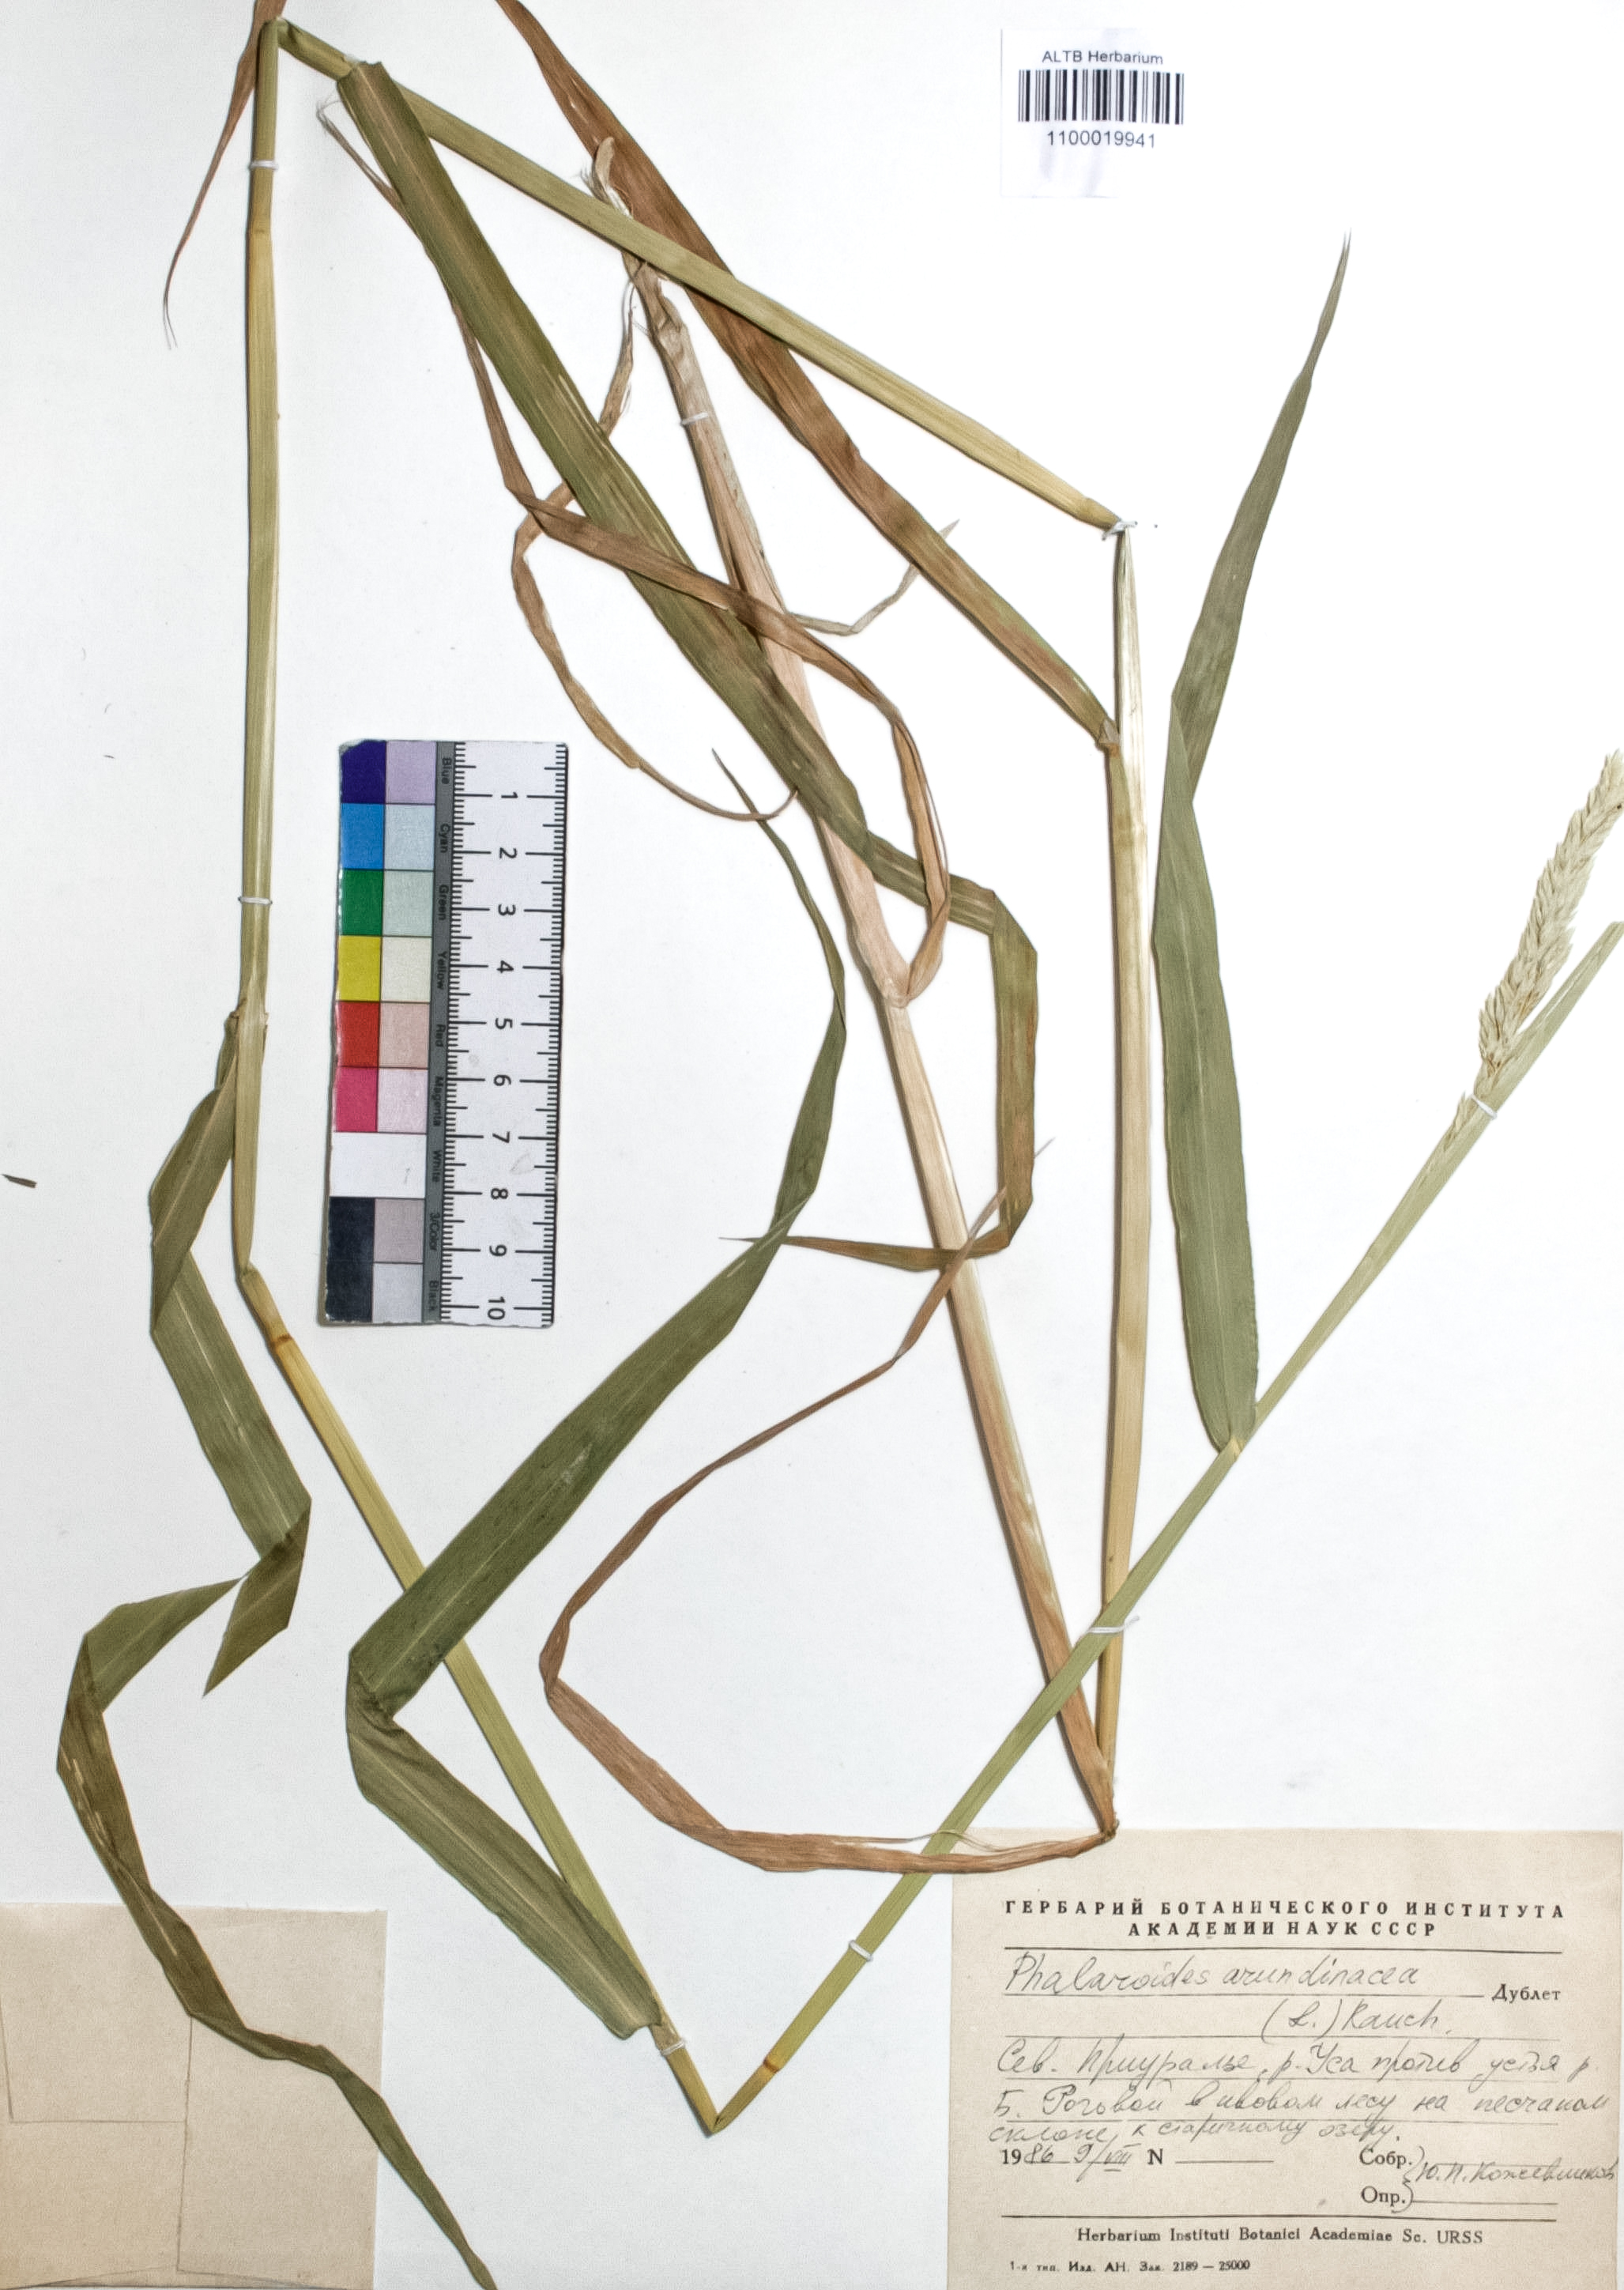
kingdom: Plantae
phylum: Tracheophyta
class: Liliopsida
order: Poales
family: Poaceae
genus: Phalaris
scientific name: Phalaris arundinacea
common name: Reed canary-grass
